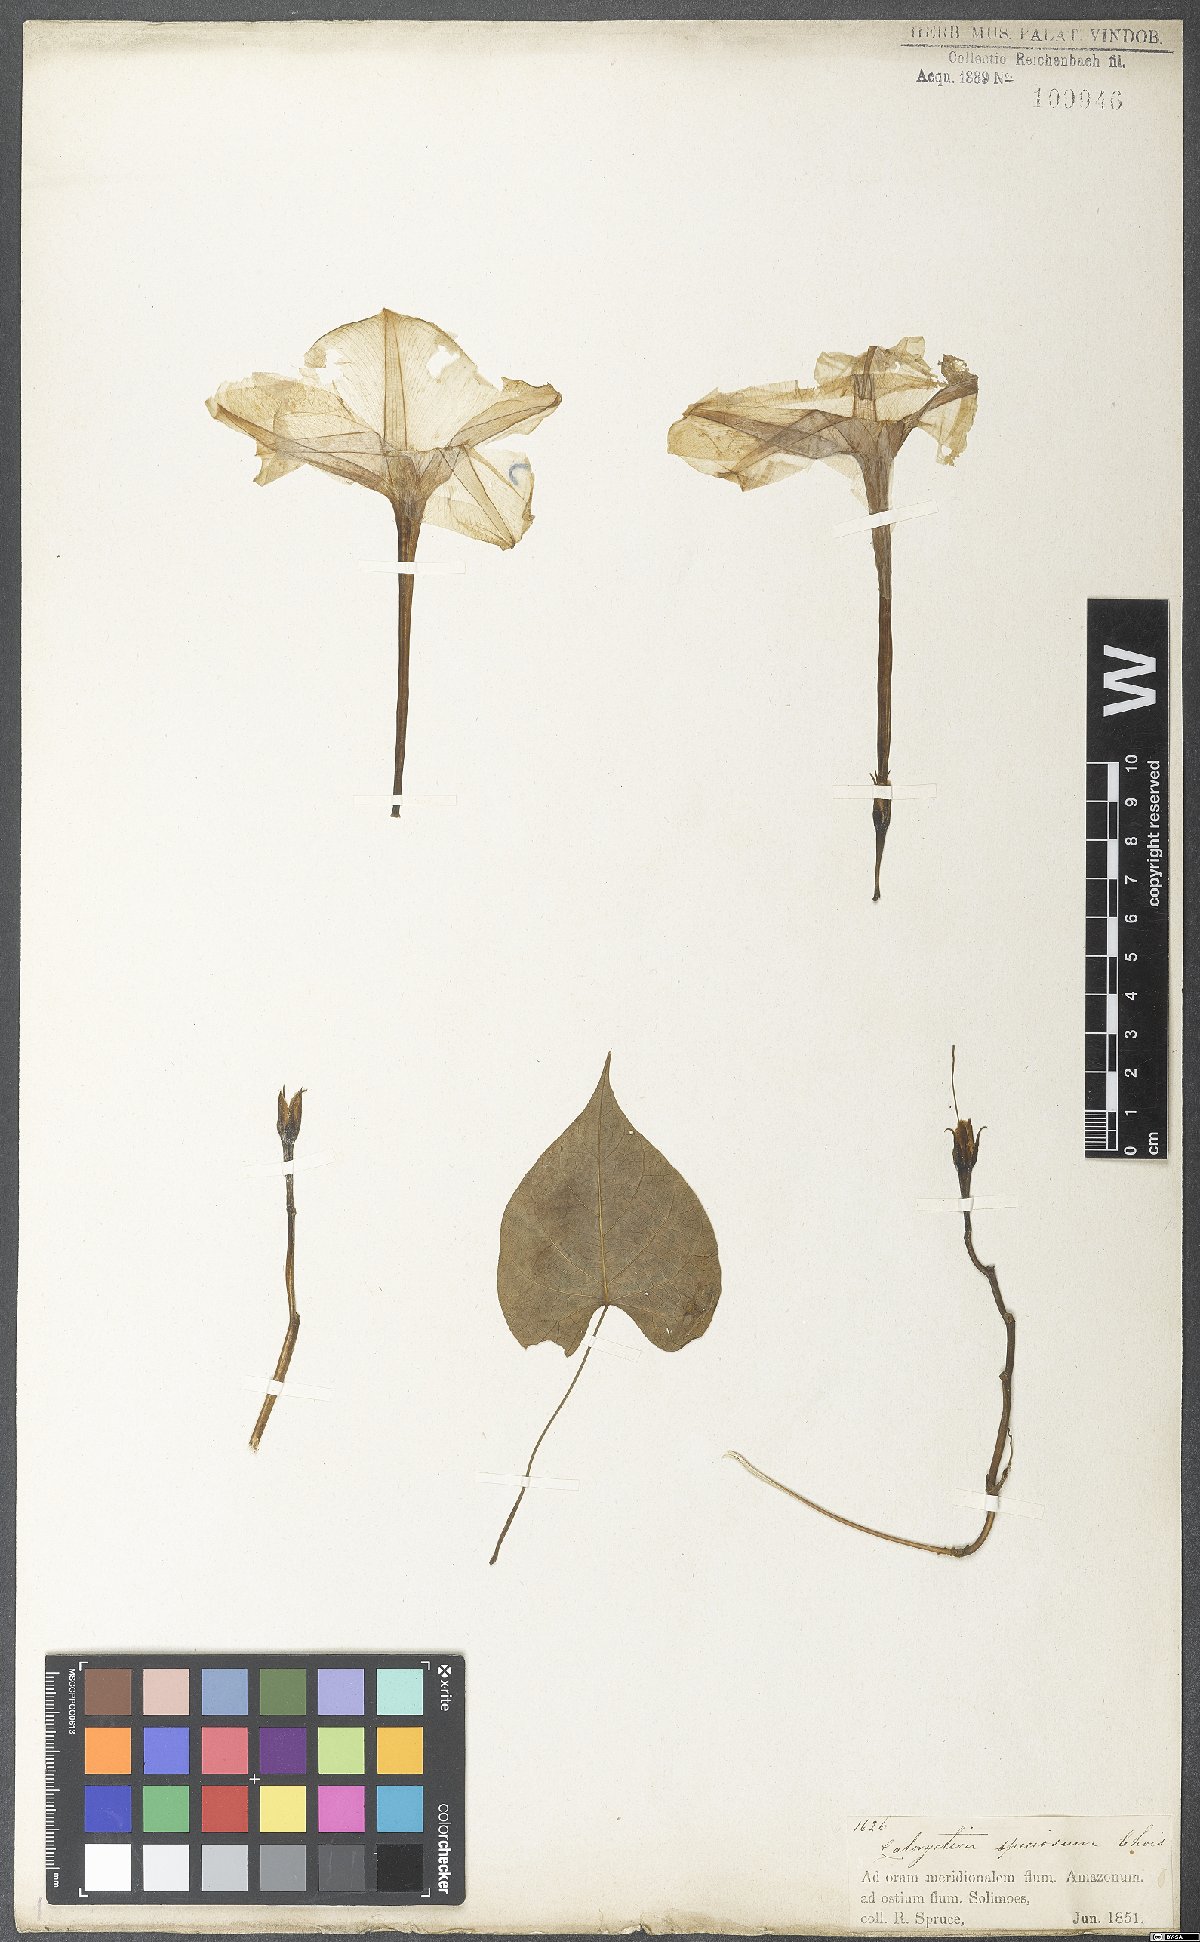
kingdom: Plantae
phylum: Tracheophyta
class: Magnoliopsida
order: Solanales
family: Convolvulaceae
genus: Ipomoea
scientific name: Ipomoea alba
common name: Moonflower
